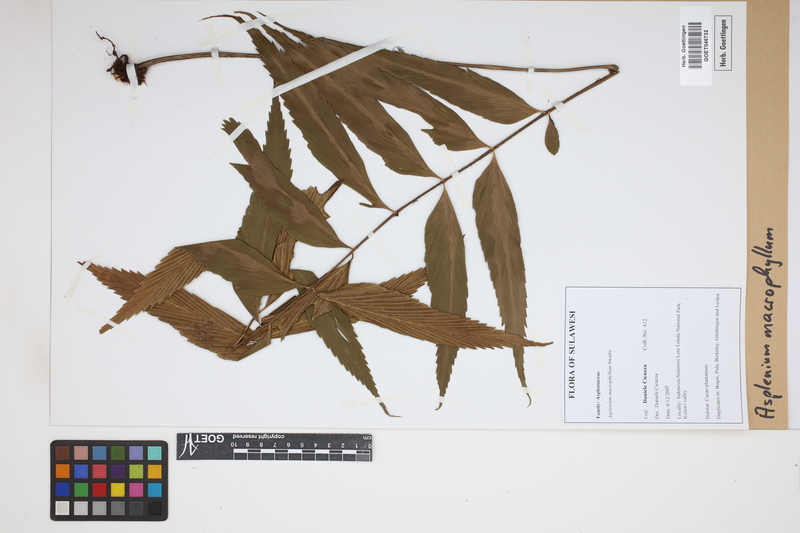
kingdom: Plantae
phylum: Tracheophyta
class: Polypodiopsida
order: Polypodiales
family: Aspleniaceae
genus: Asplenium
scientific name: Asplenium macrophyllum
